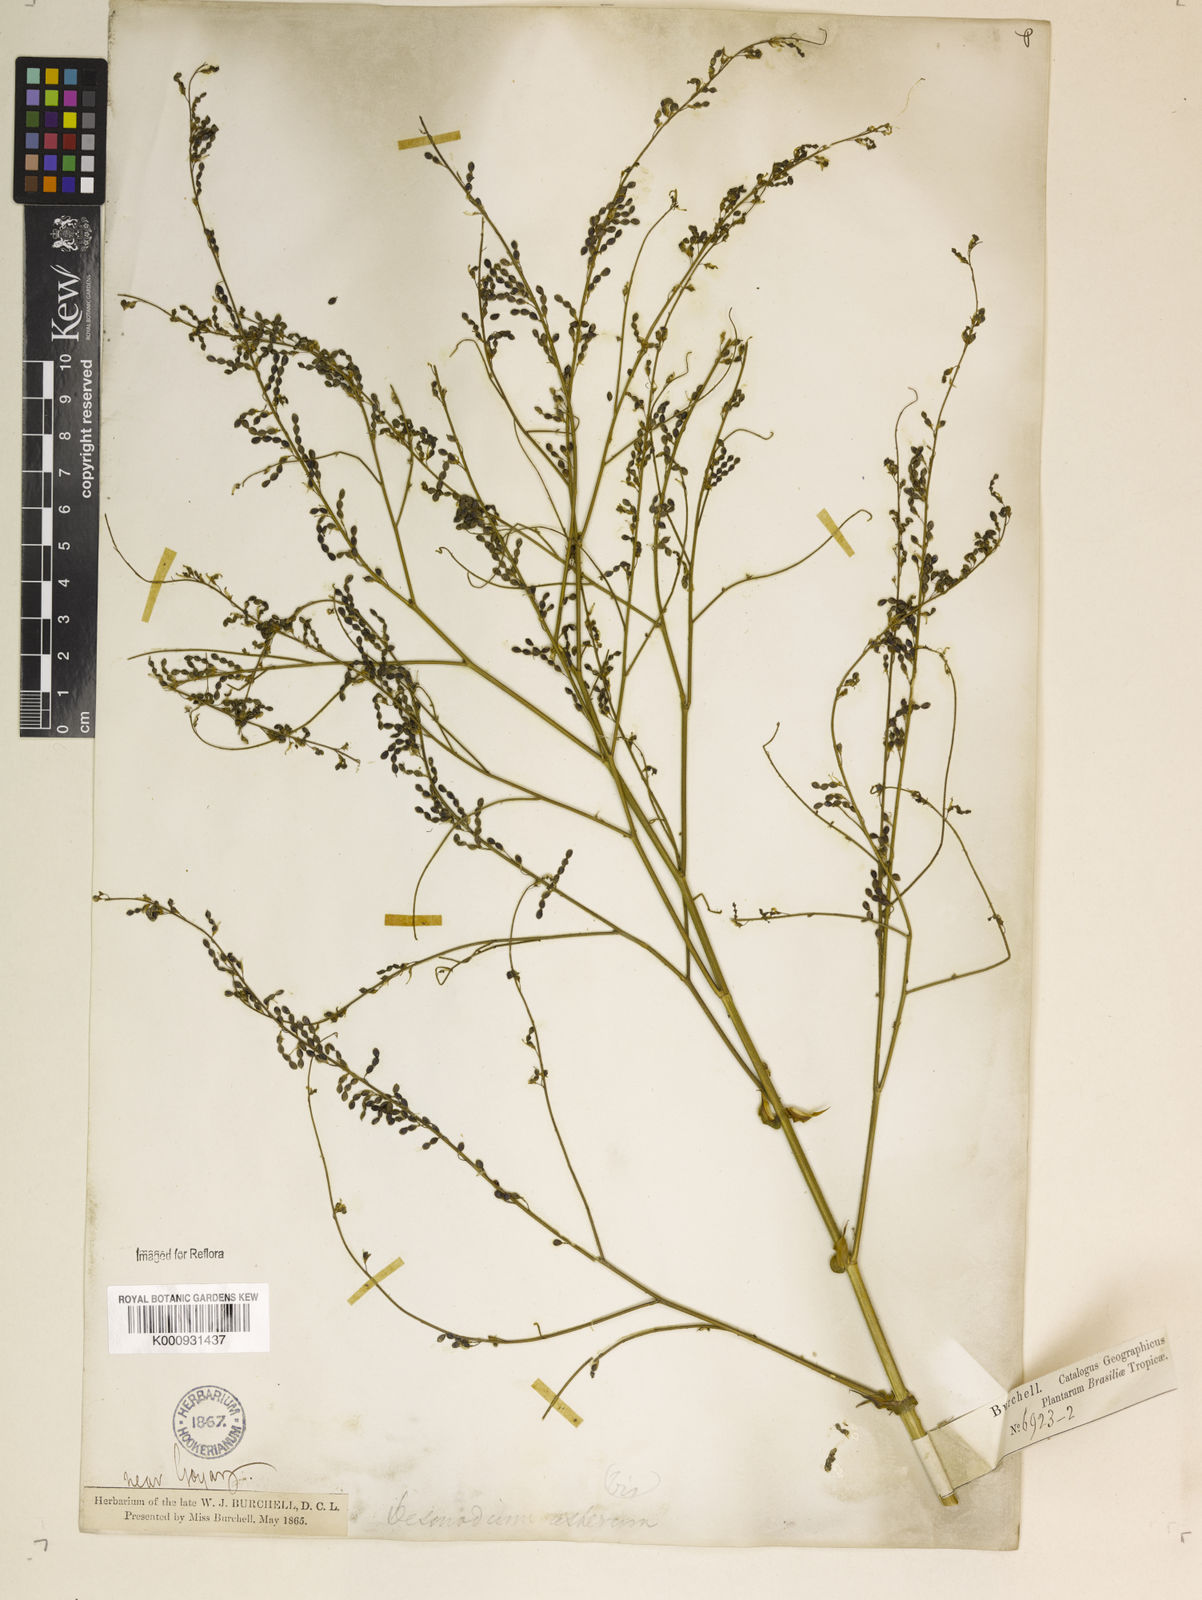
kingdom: Plantae
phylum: Tracheophyta
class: Magnoliopsida
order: Fabales
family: Fabaceae
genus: Desmodium
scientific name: Desmodium distortum
